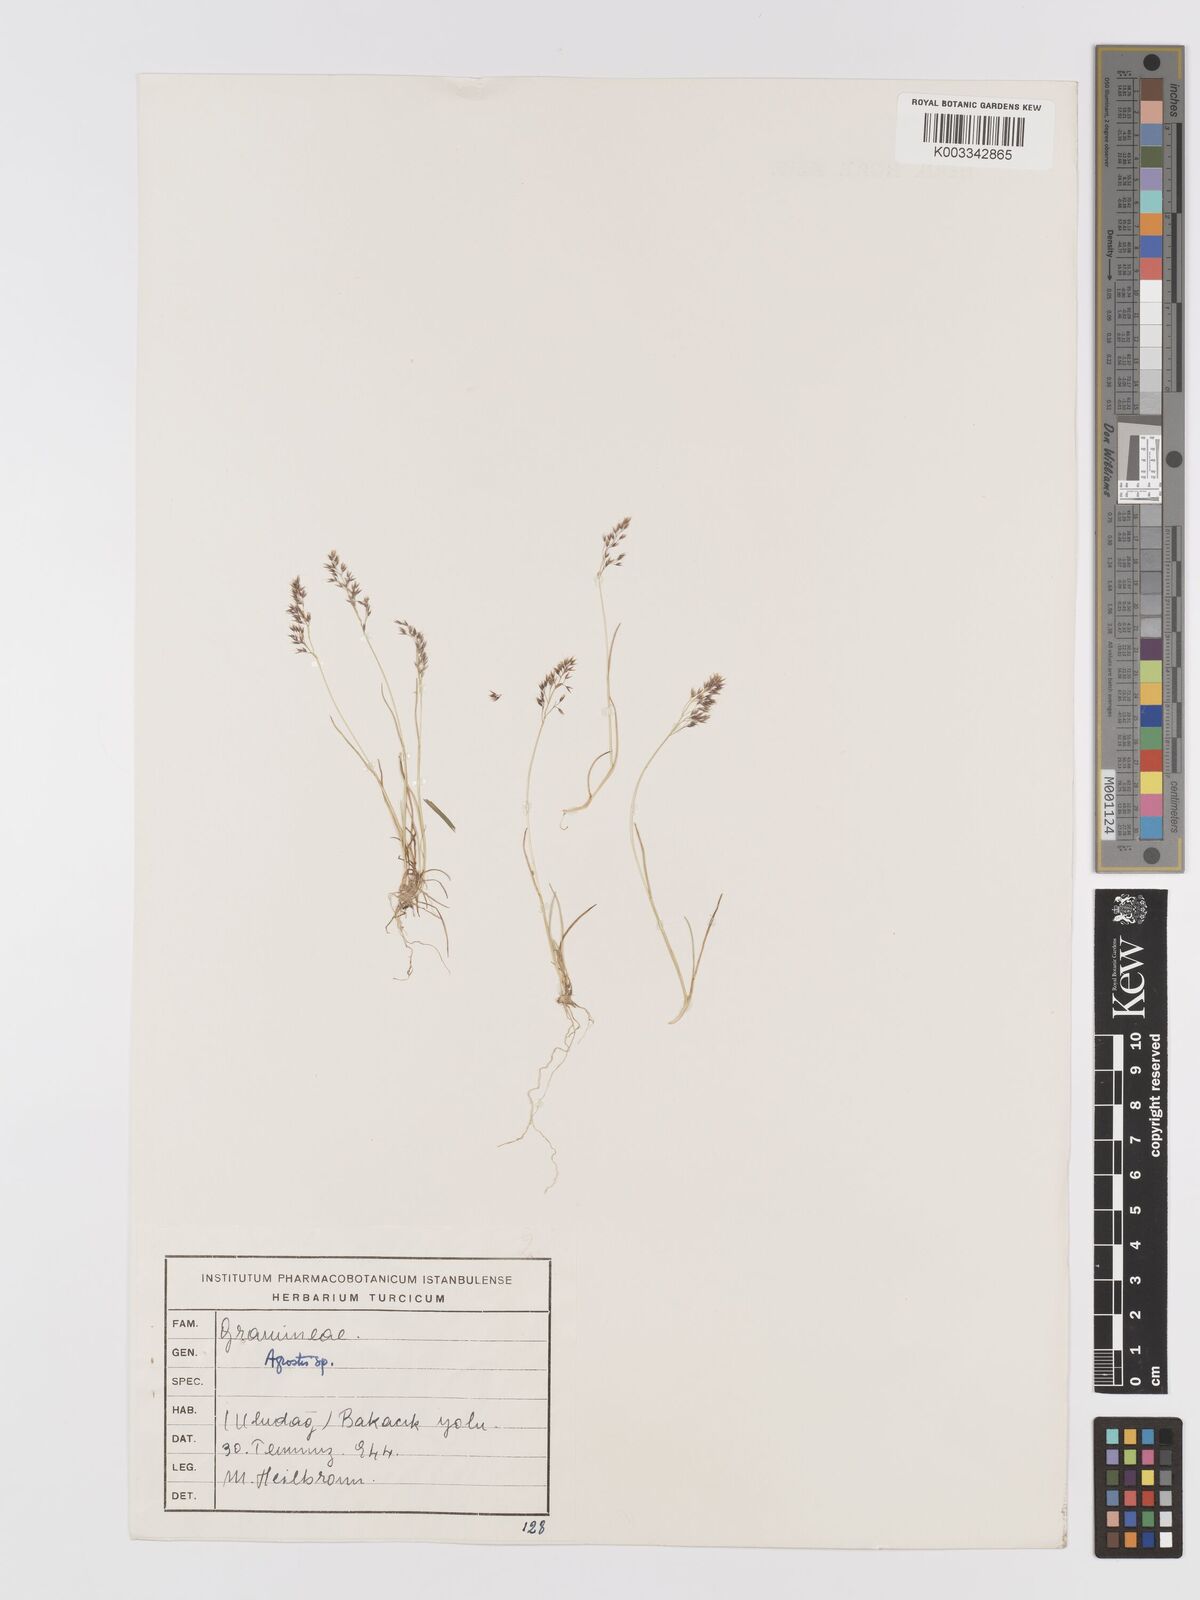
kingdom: Plantae
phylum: Tracheophyta
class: Liliopsida
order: Poales
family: Poaceae
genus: Agrostis
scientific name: Agrostis
